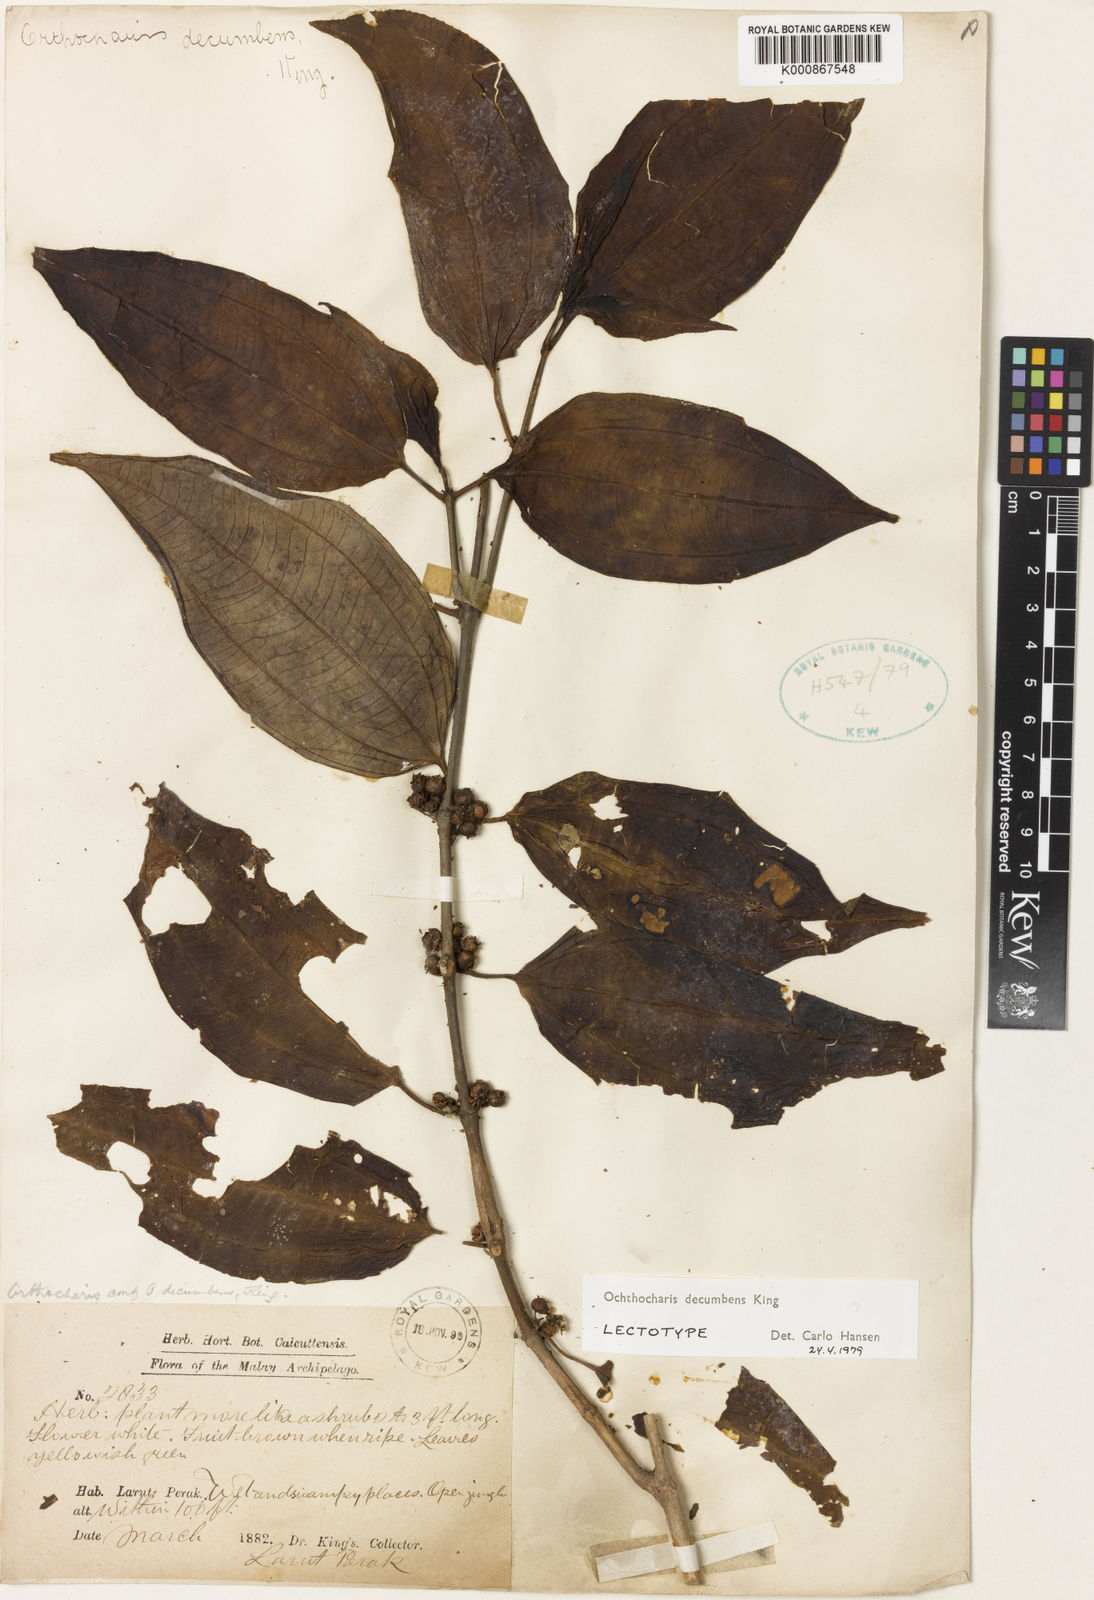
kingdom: Plantae
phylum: Tracheophyta
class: Magnoliopsida
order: Myrtales
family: Melastomataceae
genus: Ochthocharis
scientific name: Ochthocharis decumbens
